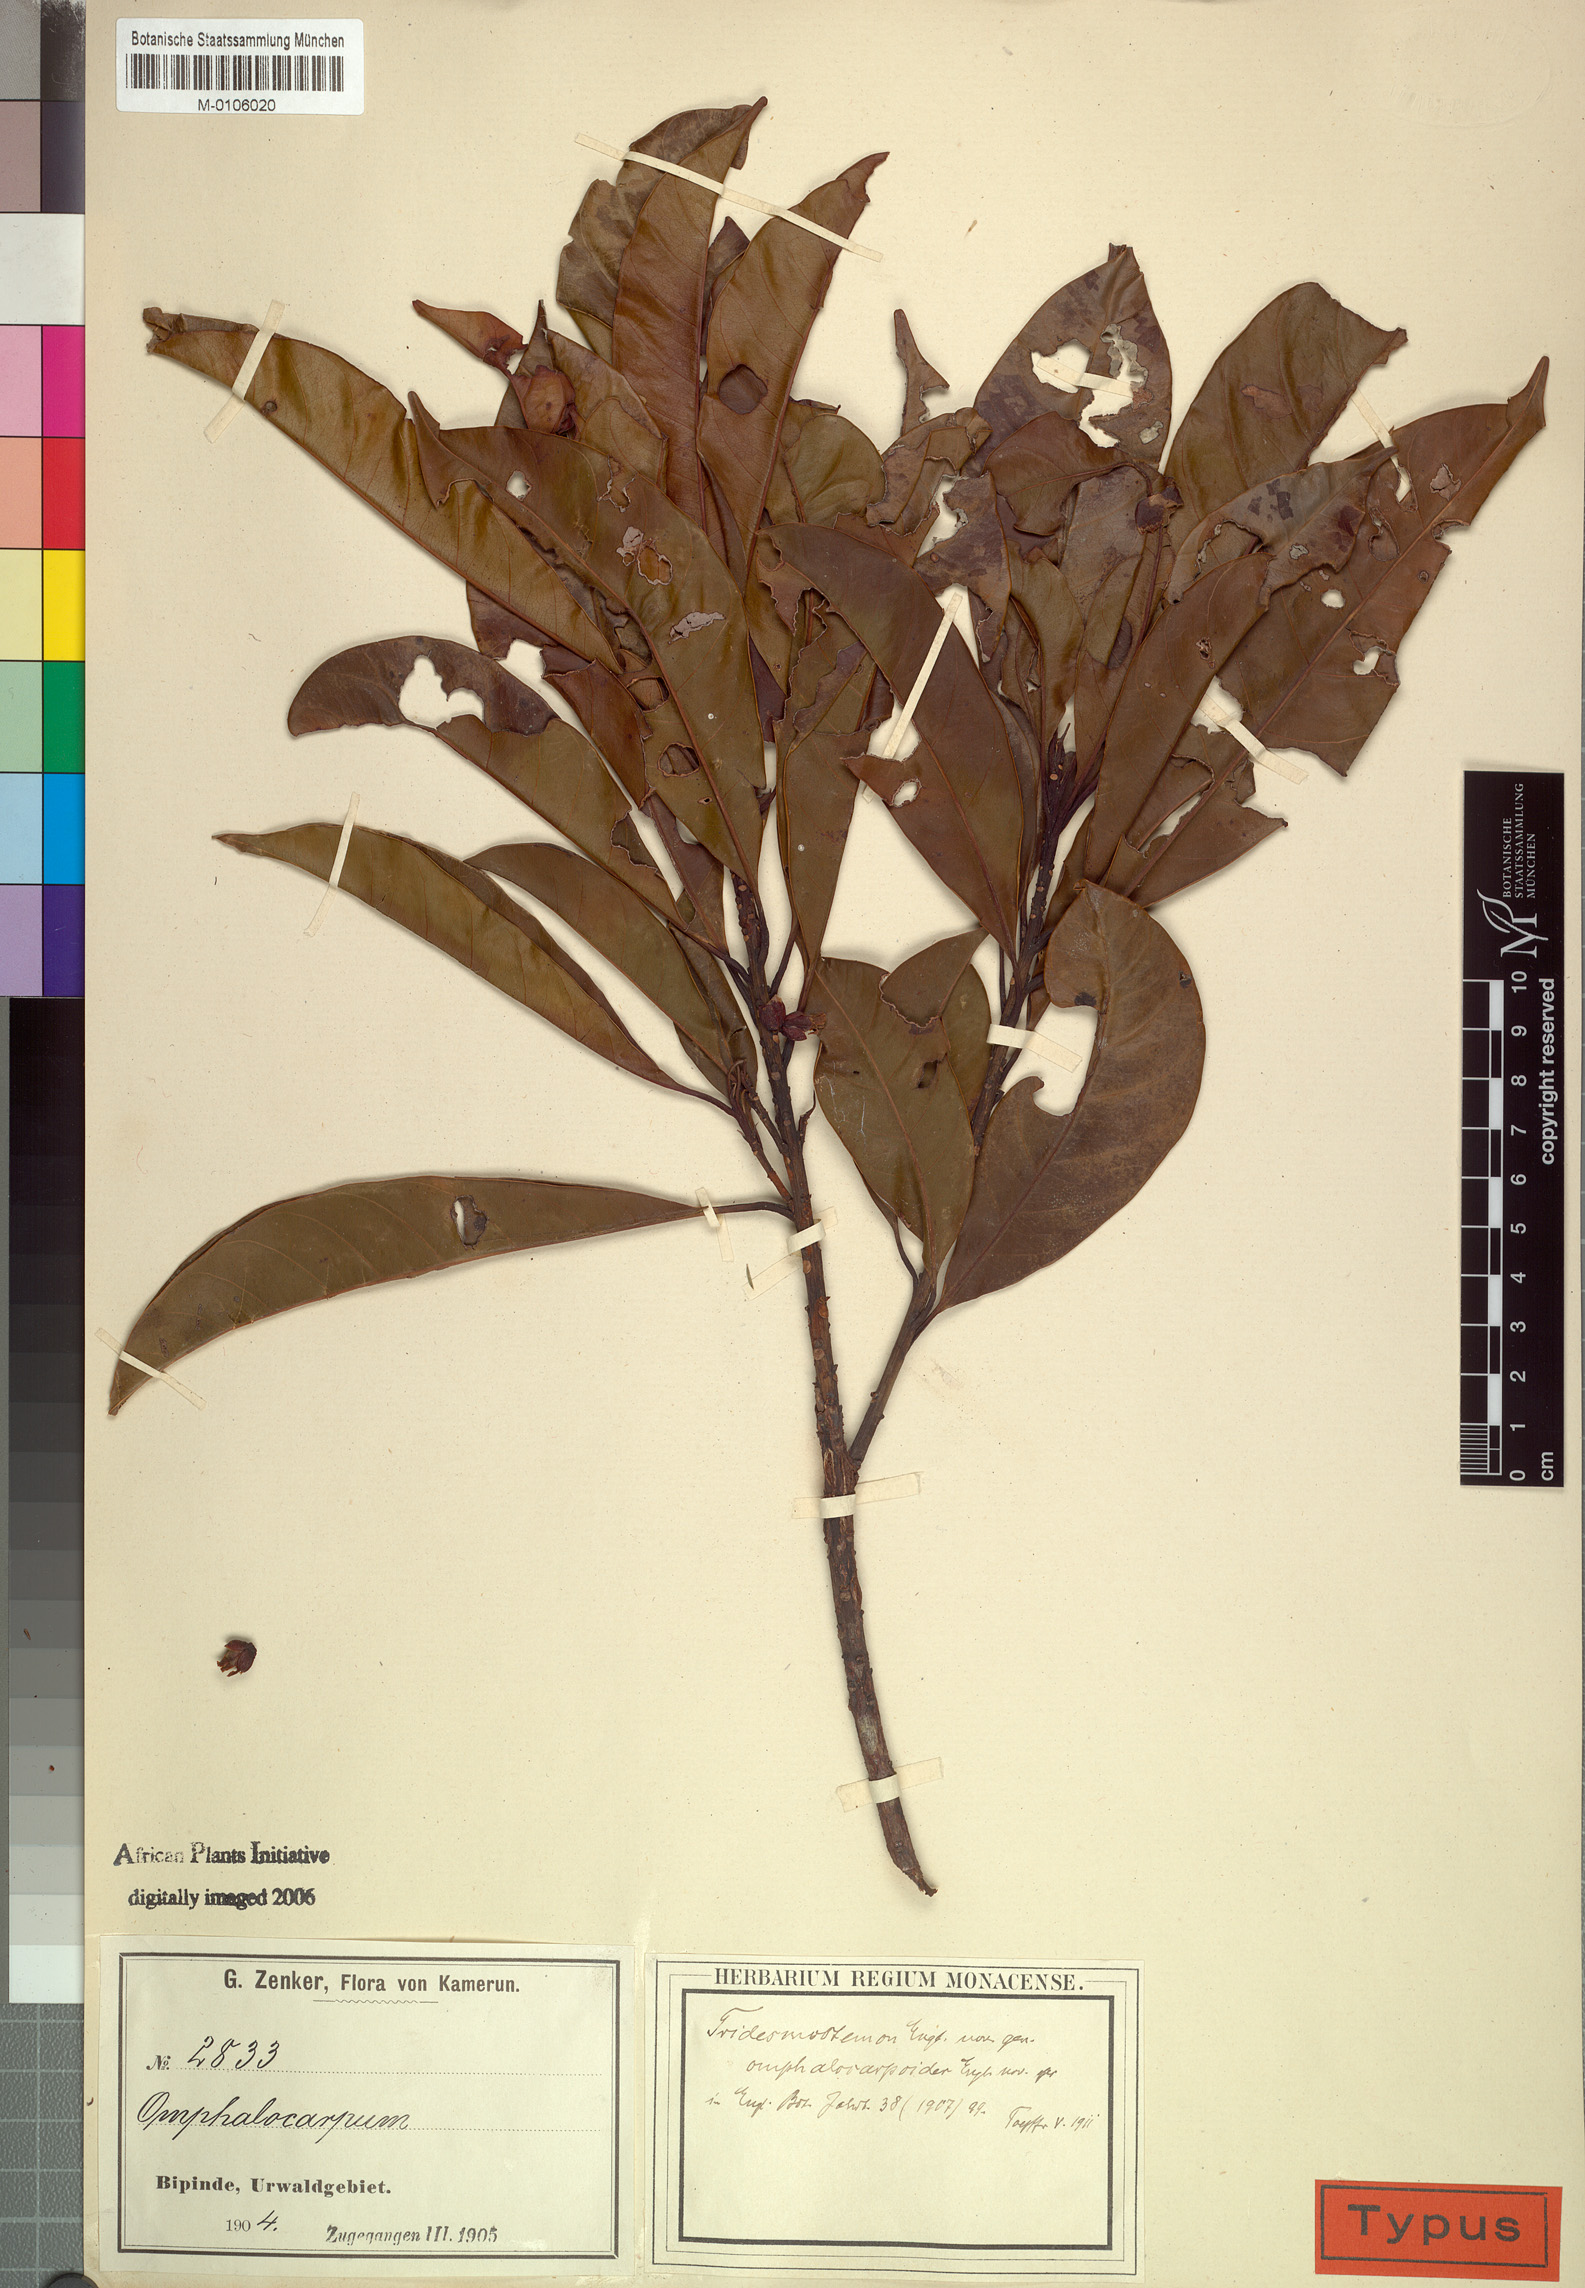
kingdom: Plantae
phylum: Tracheophyta
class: Magnoliopsida
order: Ericales
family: Sapotaceae
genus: Tridesmostemon
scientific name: Tridesmostemon omphalocarpoides
